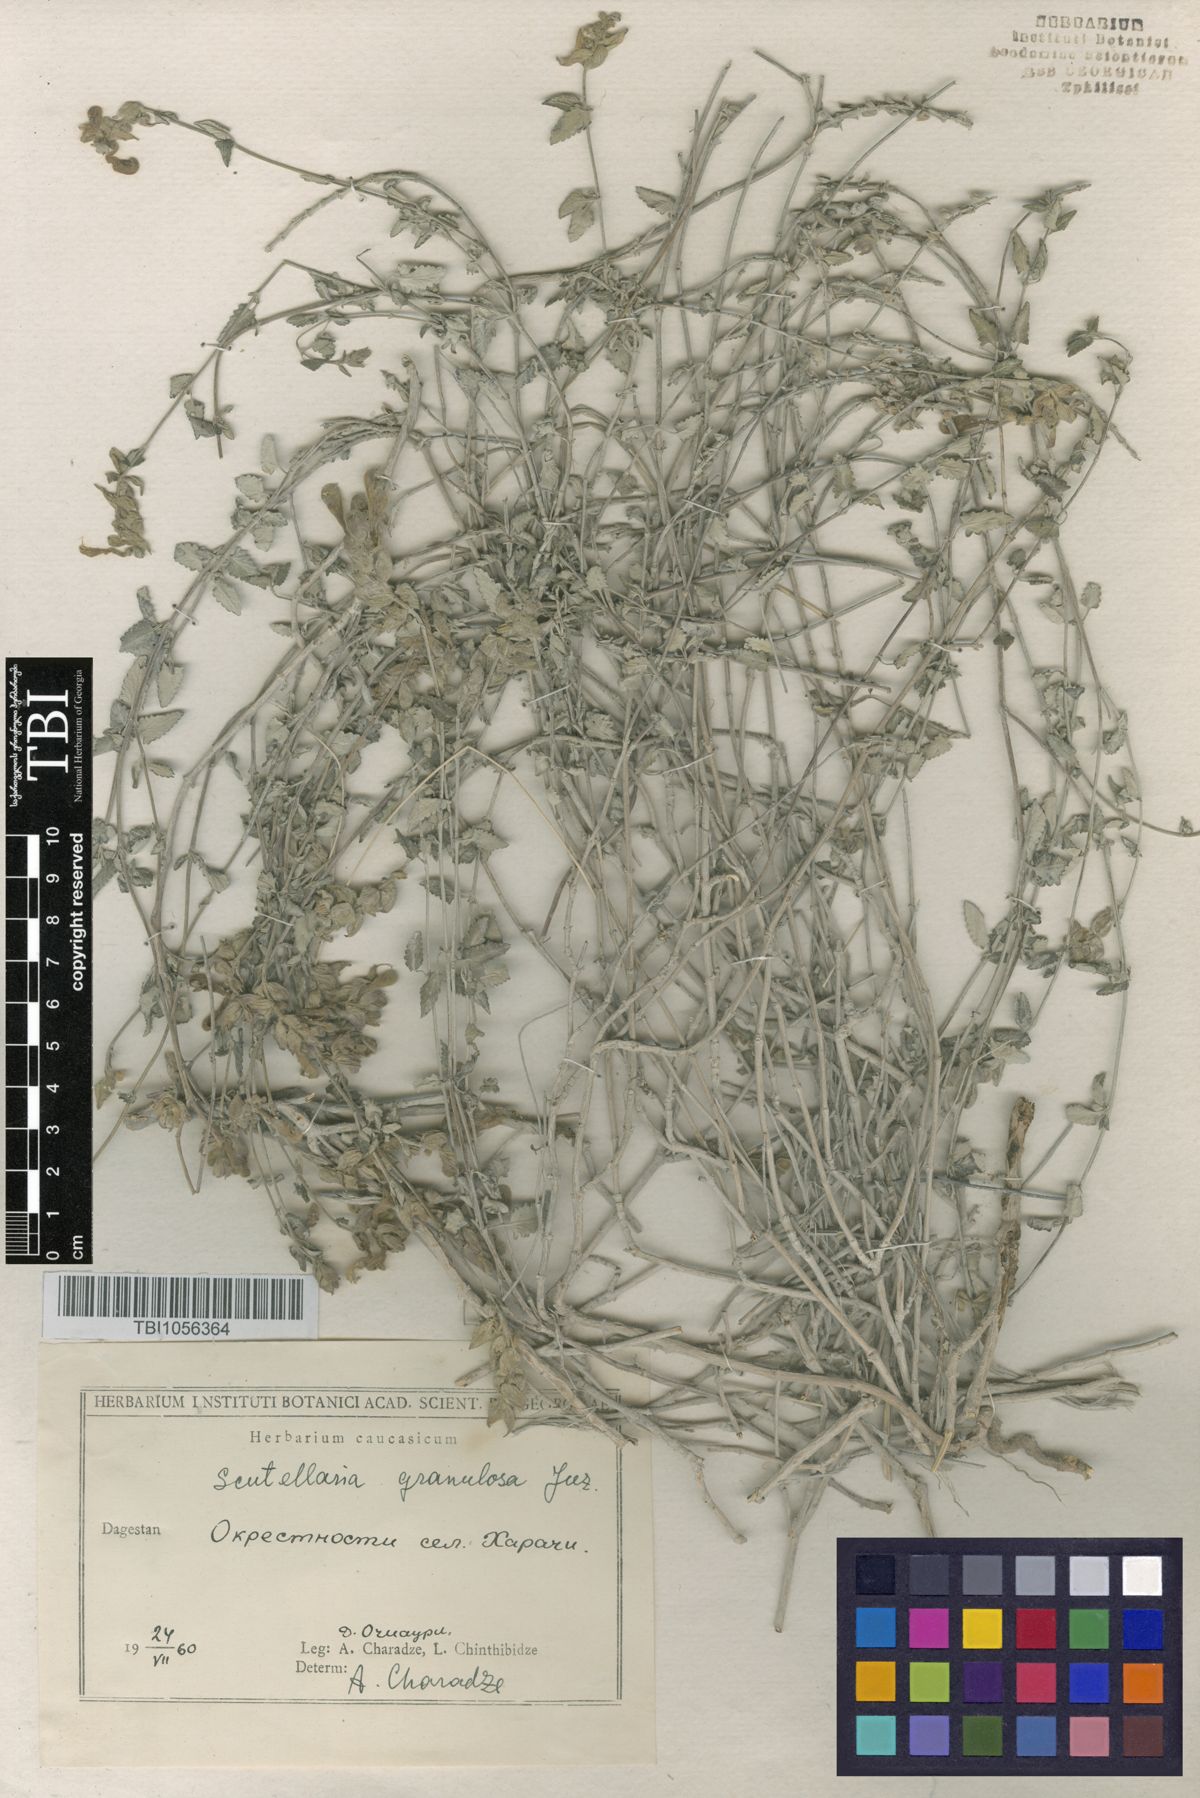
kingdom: Plantae
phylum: Tracheophyta
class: Magnoliopsida
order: Lamiales
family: Lamiaceae
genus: Scutellaria
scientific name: Scutellaria granulosa
